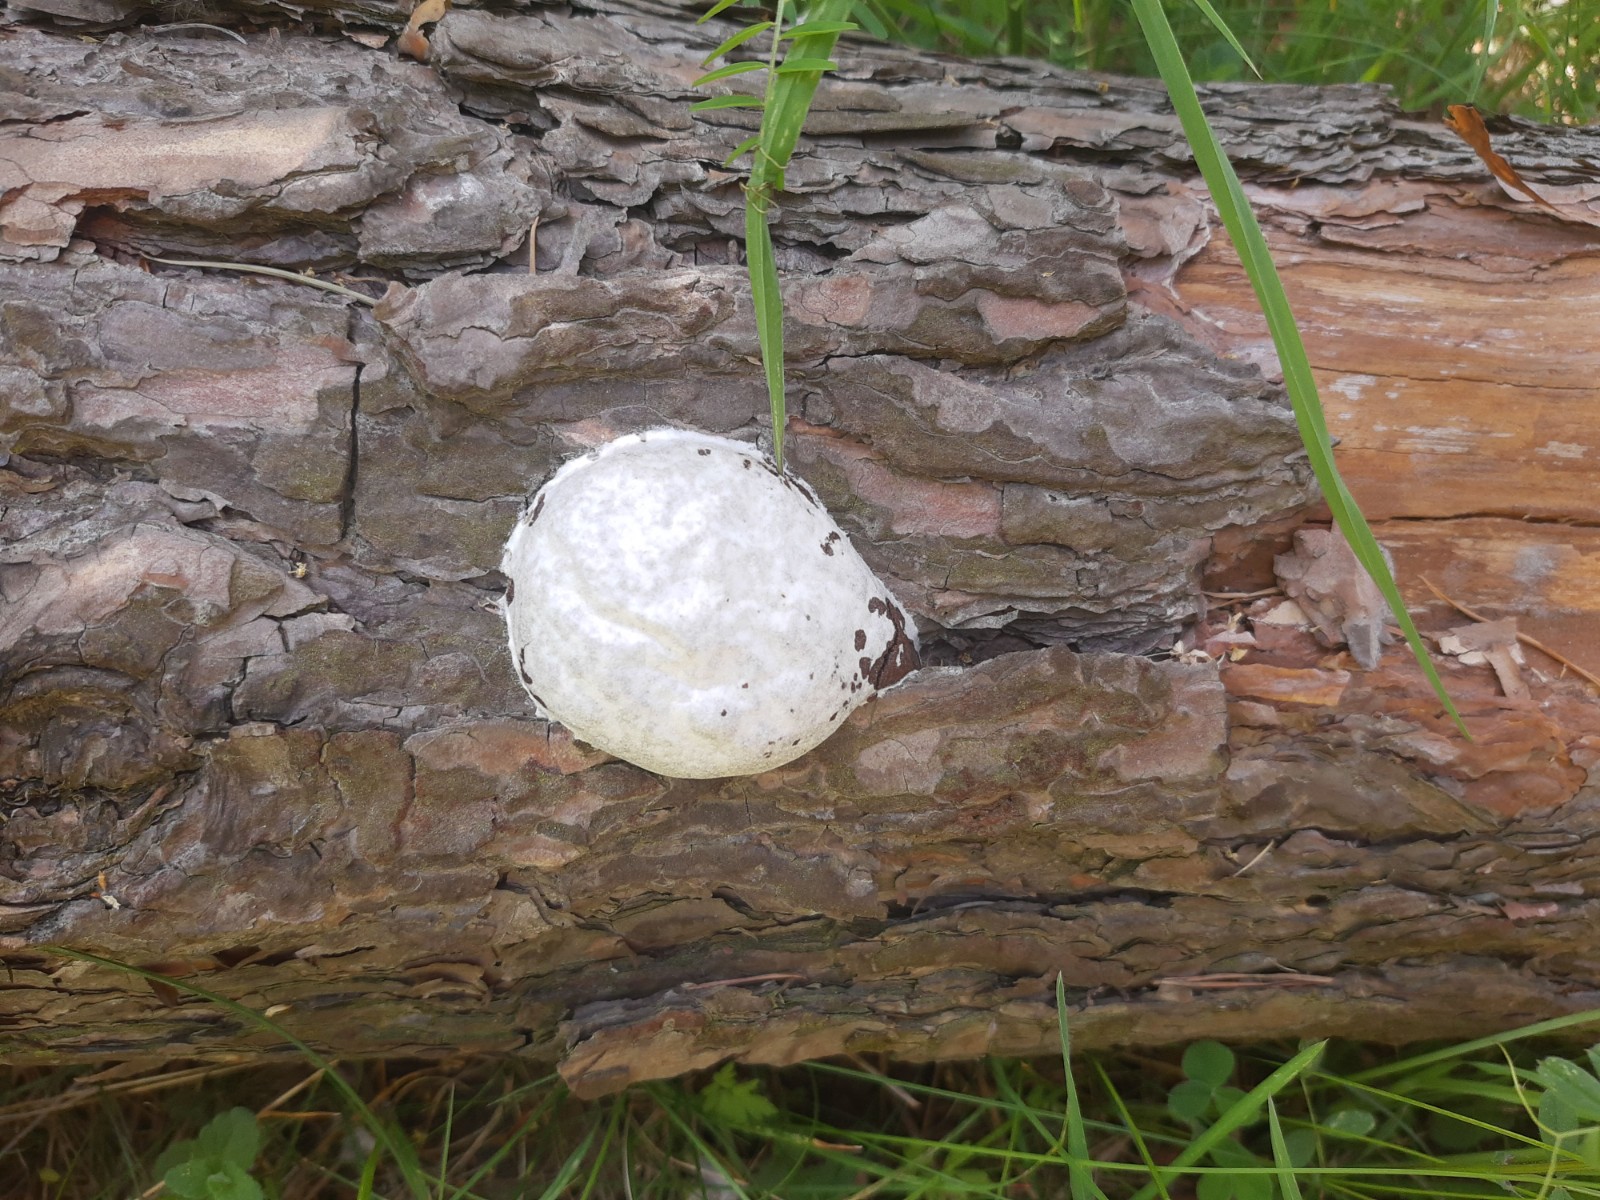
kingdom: Protozoa
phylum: Mycetozoa
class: Myxomycetes
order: Cribrariales
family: Tubiferaceae
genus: Reticularia
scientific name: Reticularia lycoperdon
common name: skinnende støvpude
